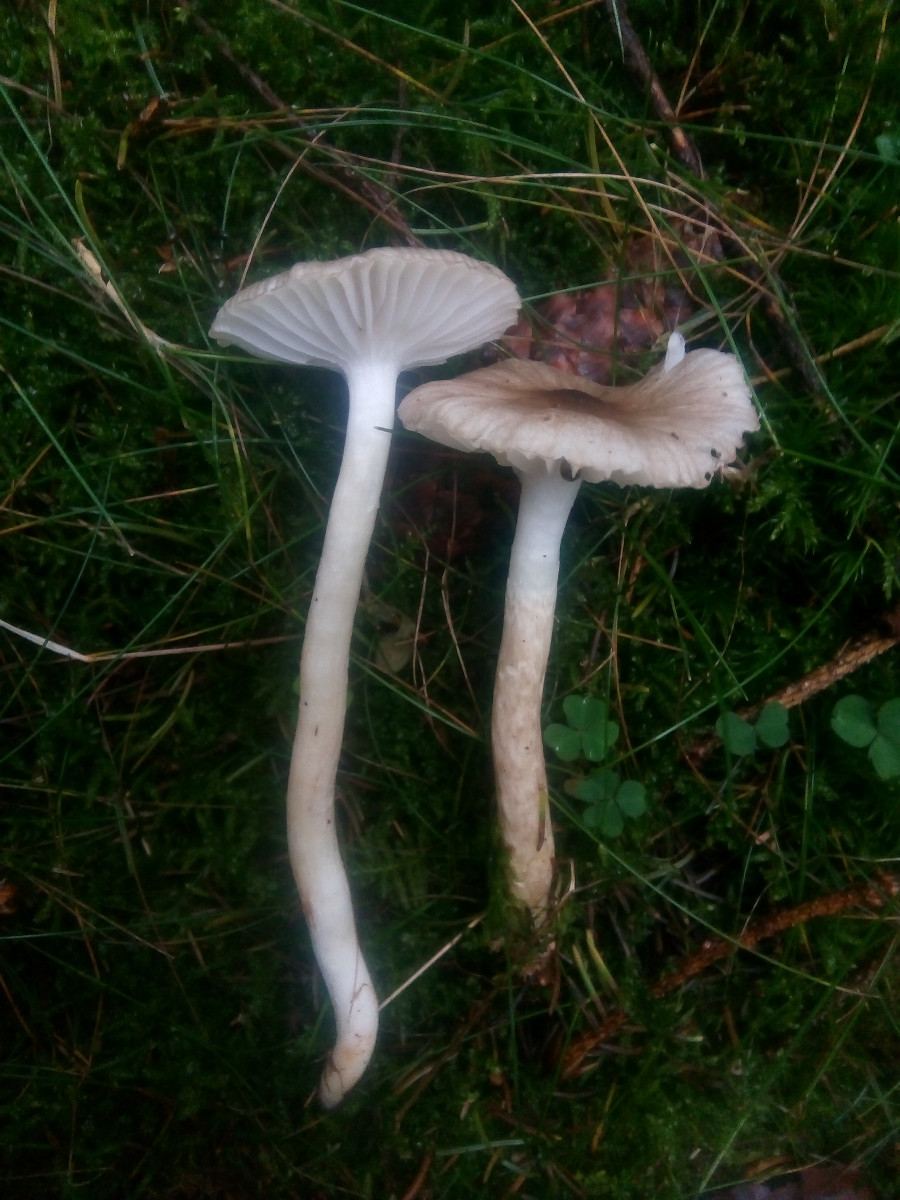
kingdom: Fungi
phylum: Basidiomycota
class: Agaricomycetes
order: Agaricales
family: Hygrophoraceae
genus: Hygrophorus
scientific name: Hygrophorus olivaceoalbus
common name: hvidbrun sneglehat
